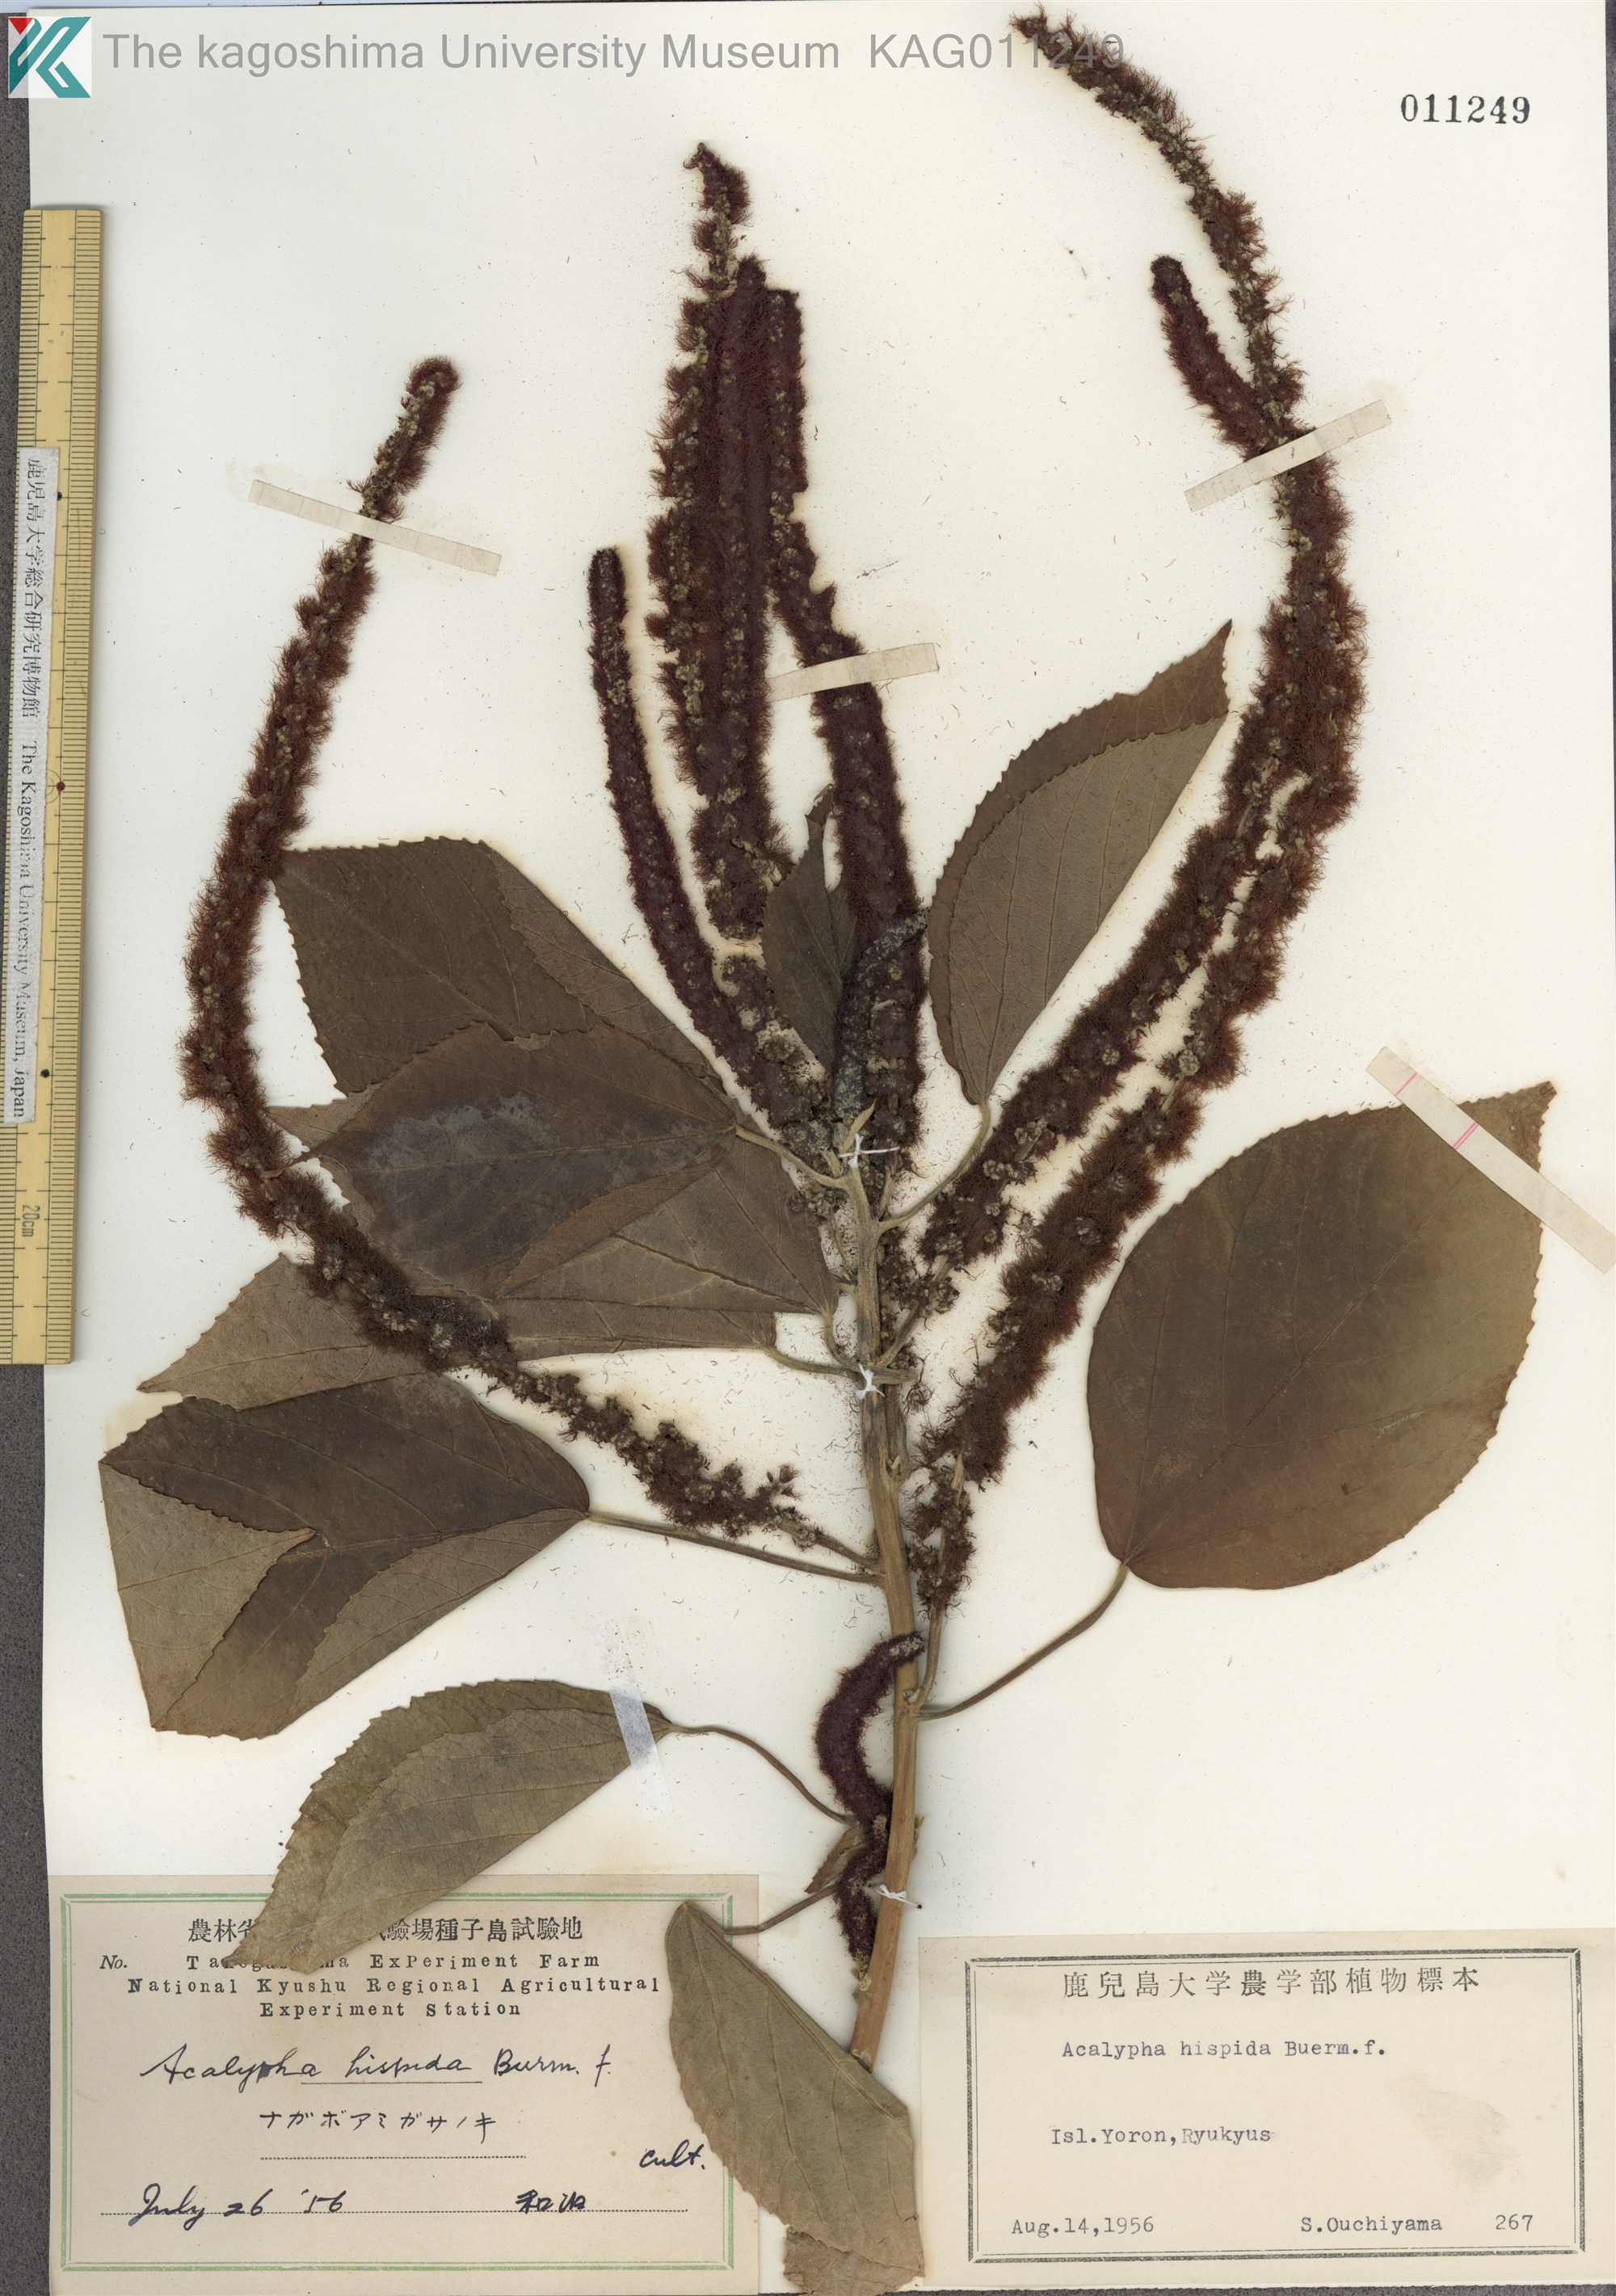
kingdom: Plantae
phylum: Tracheophyta
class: Magnoliopsida
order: Malpighiales
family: Euphorbiaceae
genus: Acalypha
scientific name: Acalypha hispida
